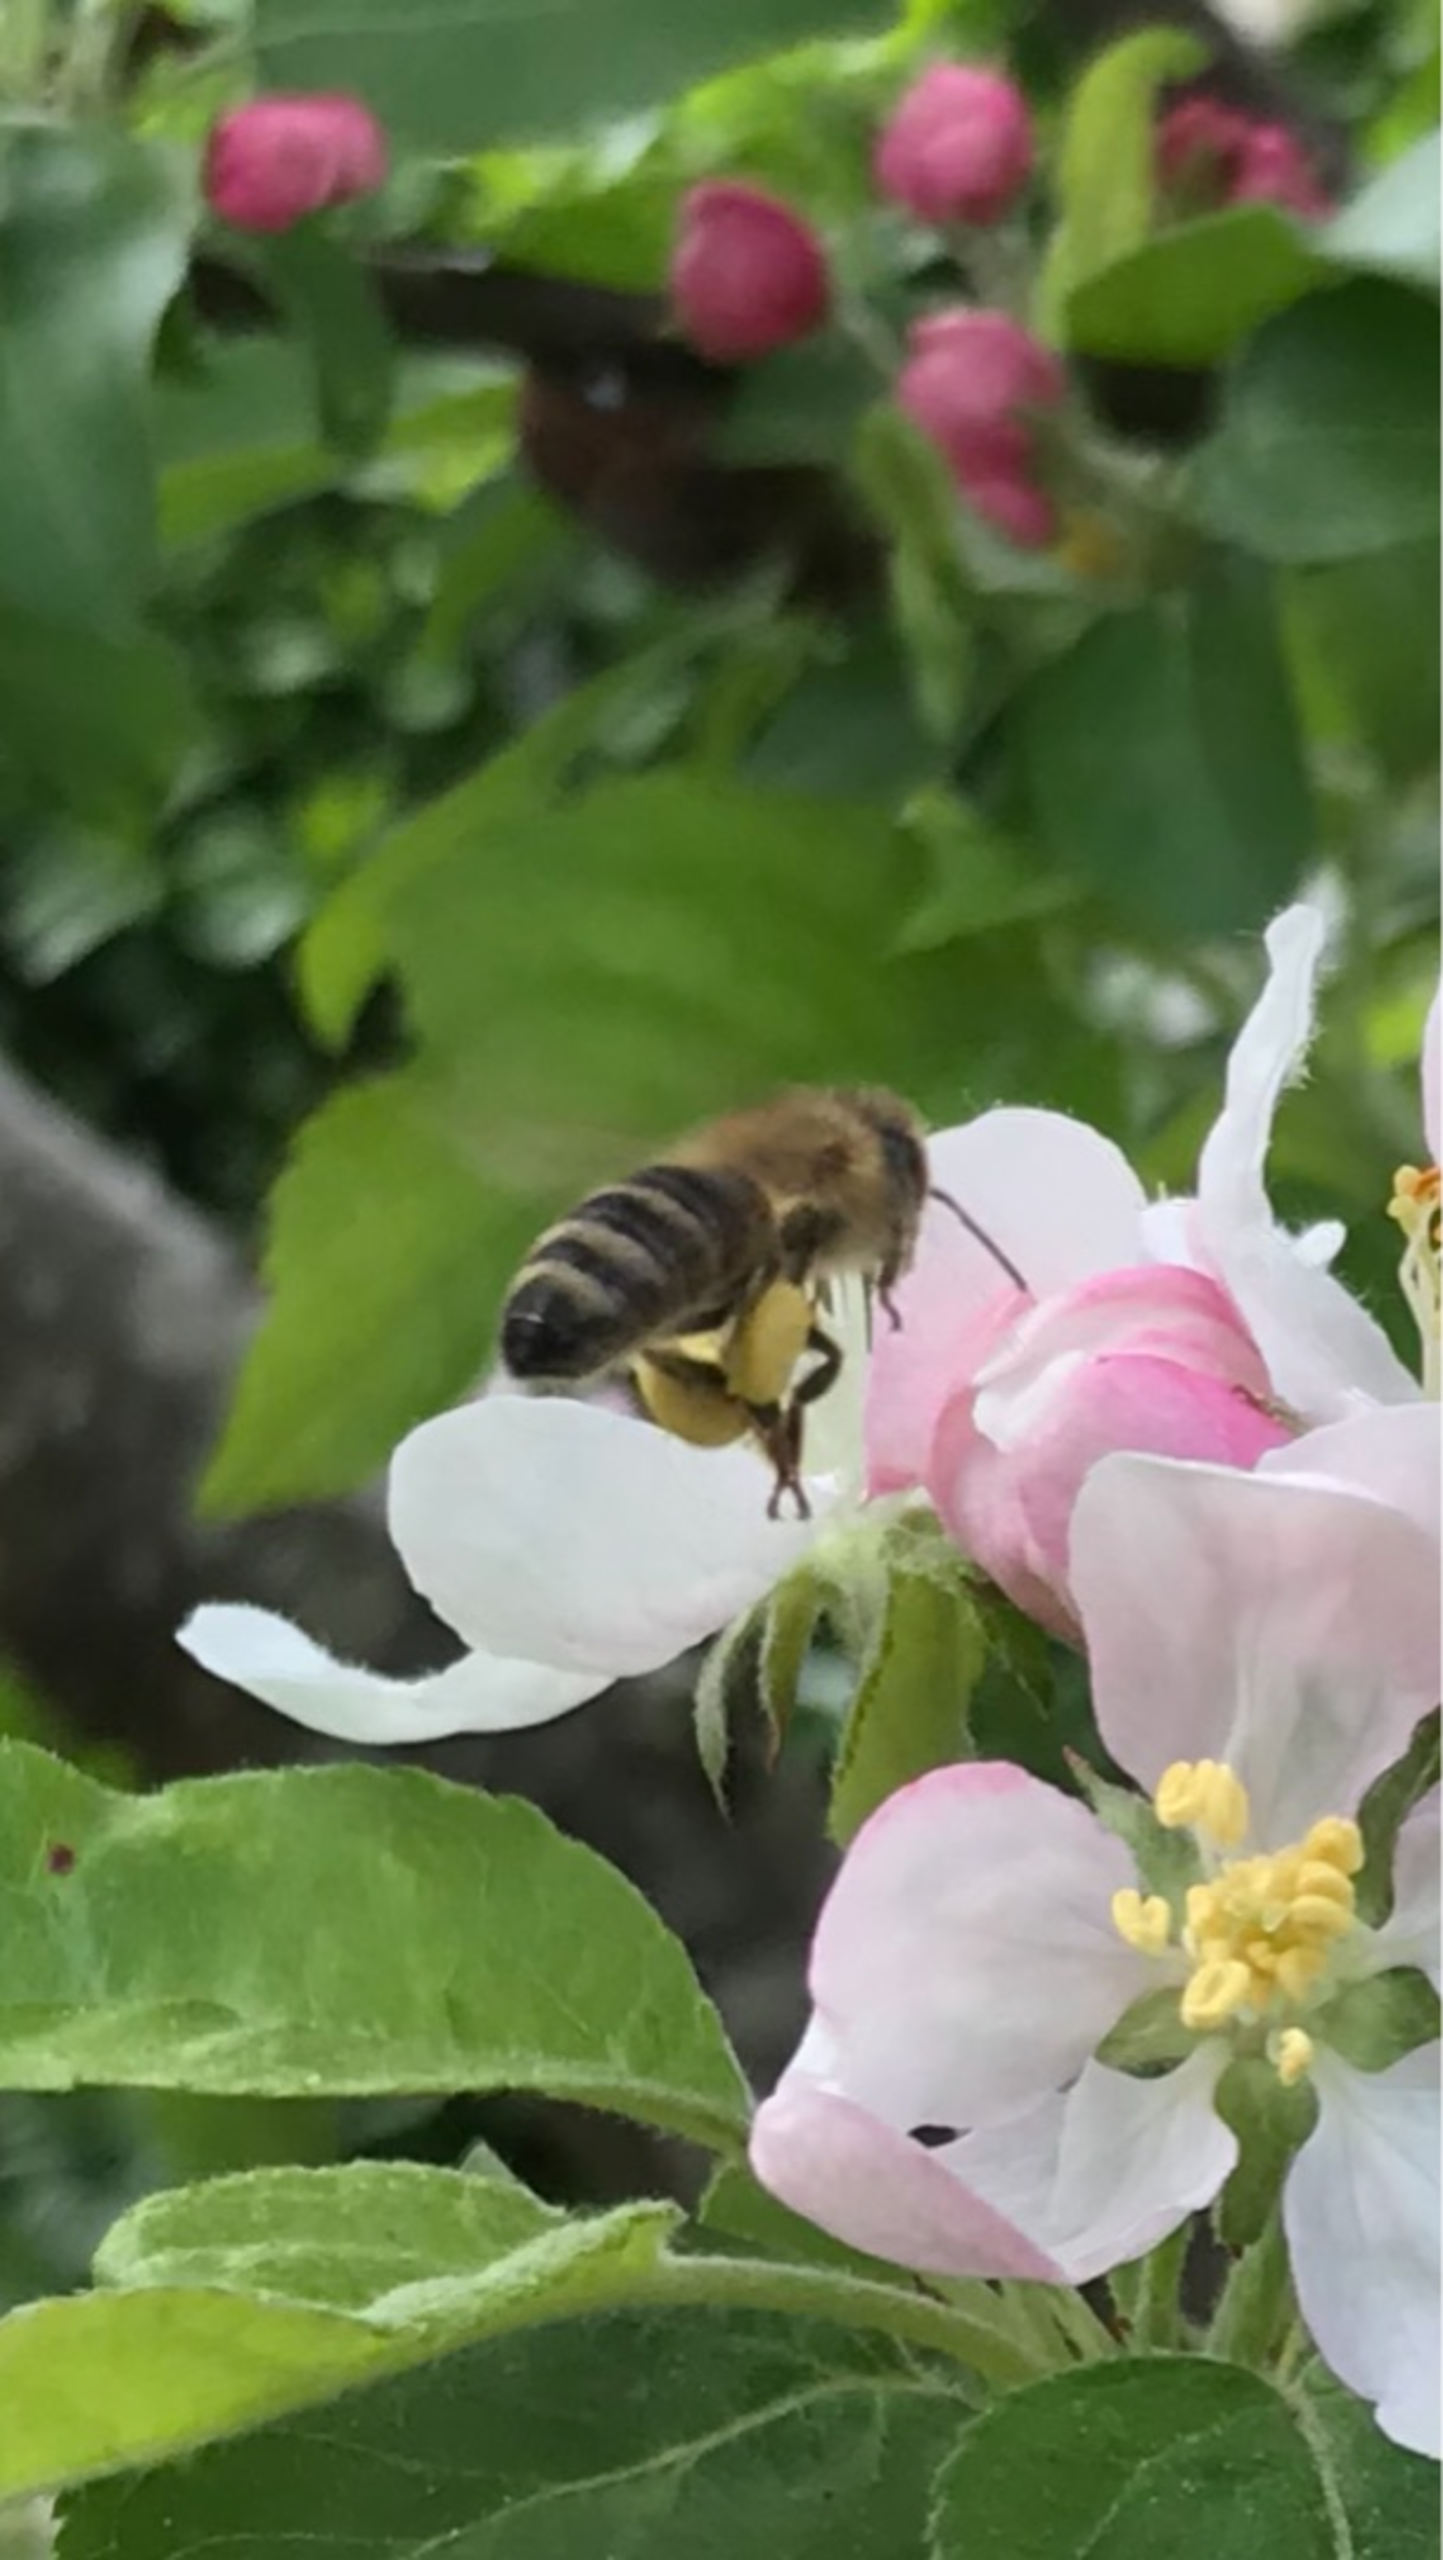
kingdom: Animalia
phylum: Arthropoda
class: Insecta
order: Hymenoptera
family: Apidae
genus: Apis
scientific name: Apis mellifera
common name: Honningbi
